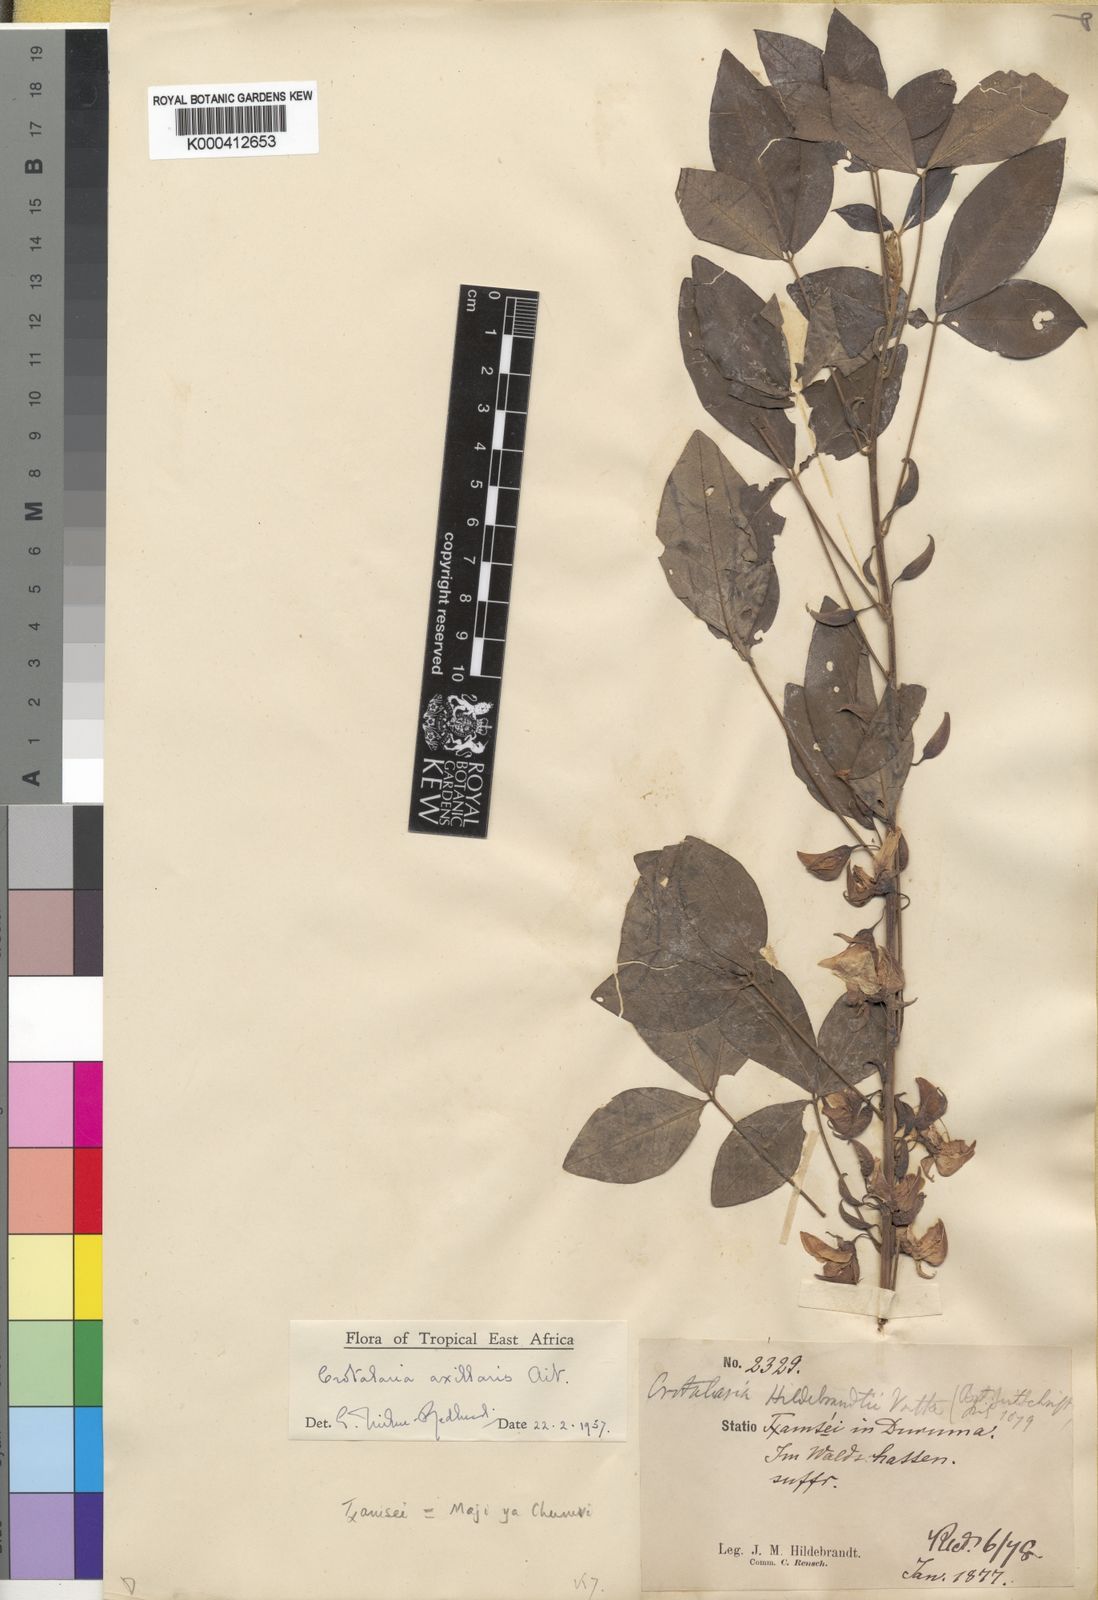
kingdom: Plantae
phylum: Tracheophyta
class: Magnoliopsida
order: Fabales
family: Fabaceae
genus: Crotalaria
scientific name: Crotalaria axillaris
